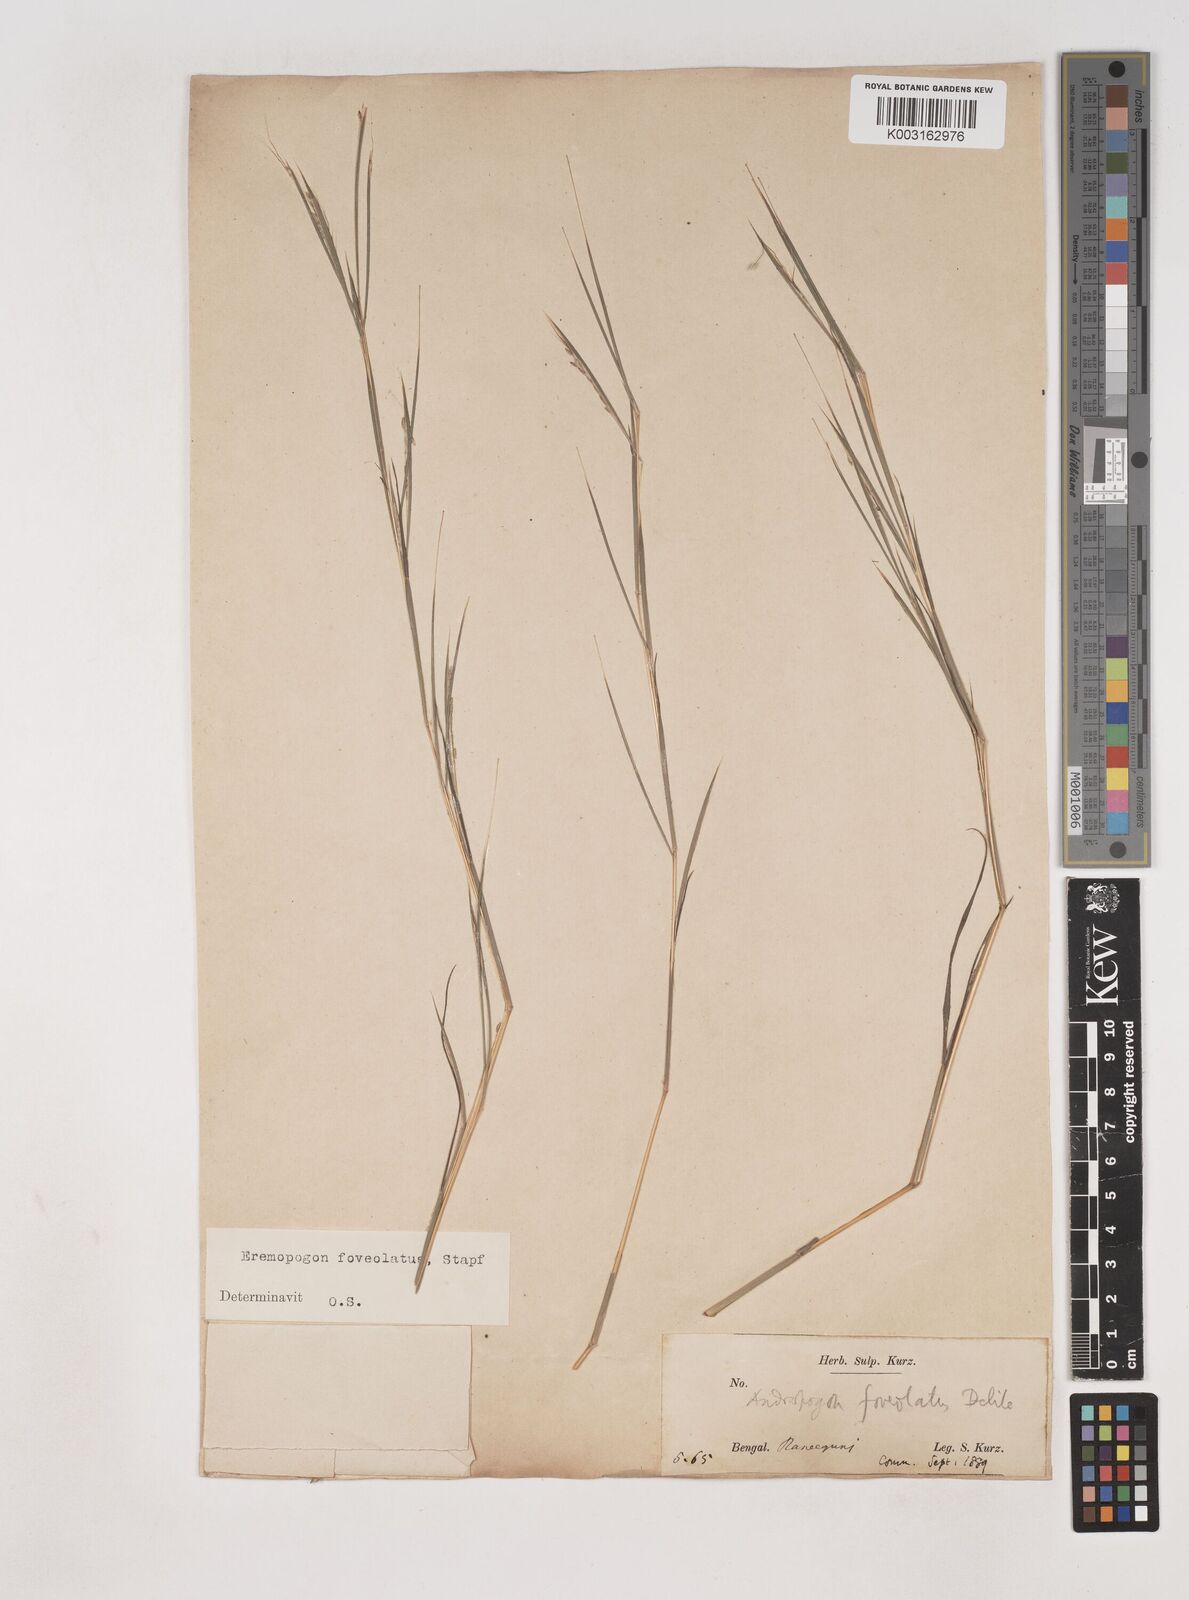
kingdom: Plantae
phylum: Tracheophyta
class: Liliopsida
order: Poales
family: Poaceae
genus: Dichanthium
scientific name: Dichanthium foveolatum
